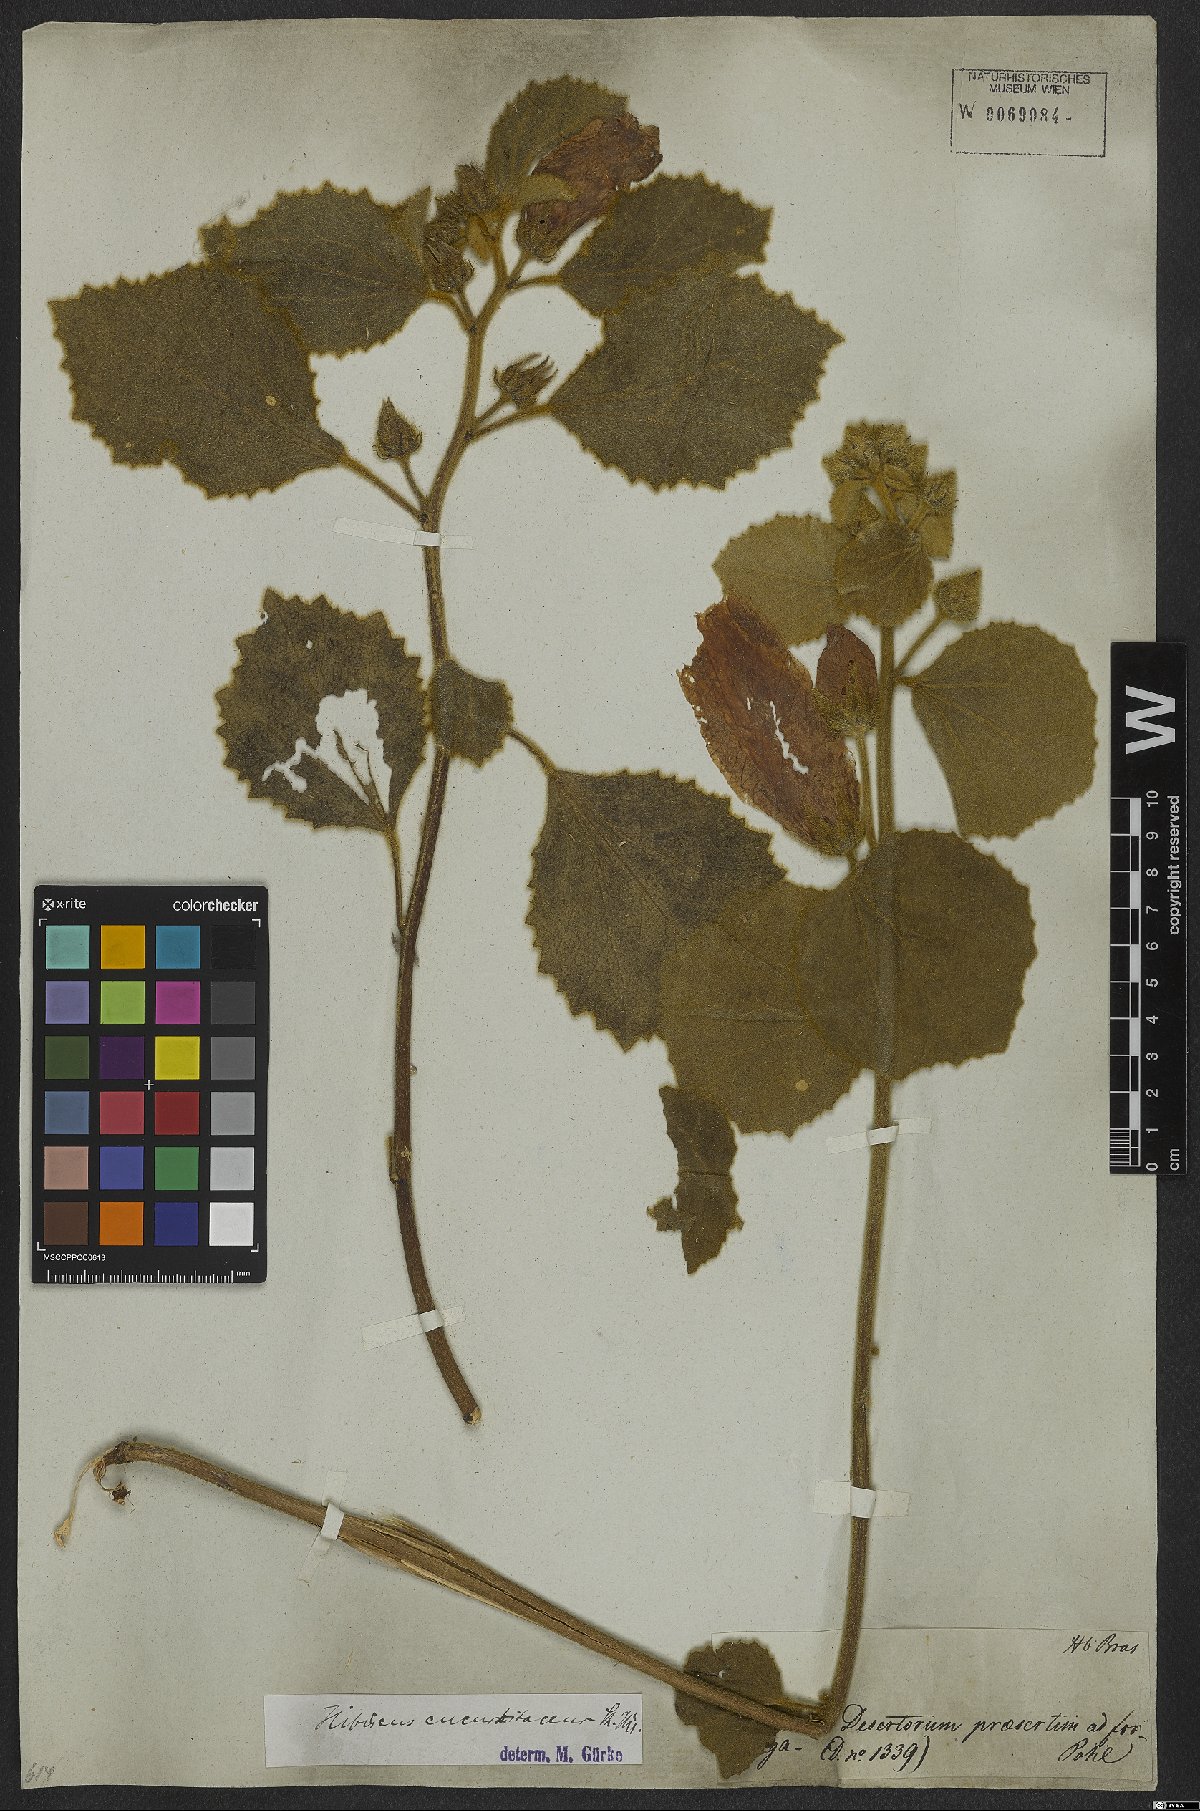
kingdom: Plantae
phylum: Tracheophyta
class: Magnoliopsida
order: Malvales
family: Malvaceae
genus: Hibiscus
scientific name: Hibiscus cucurbitaceus
